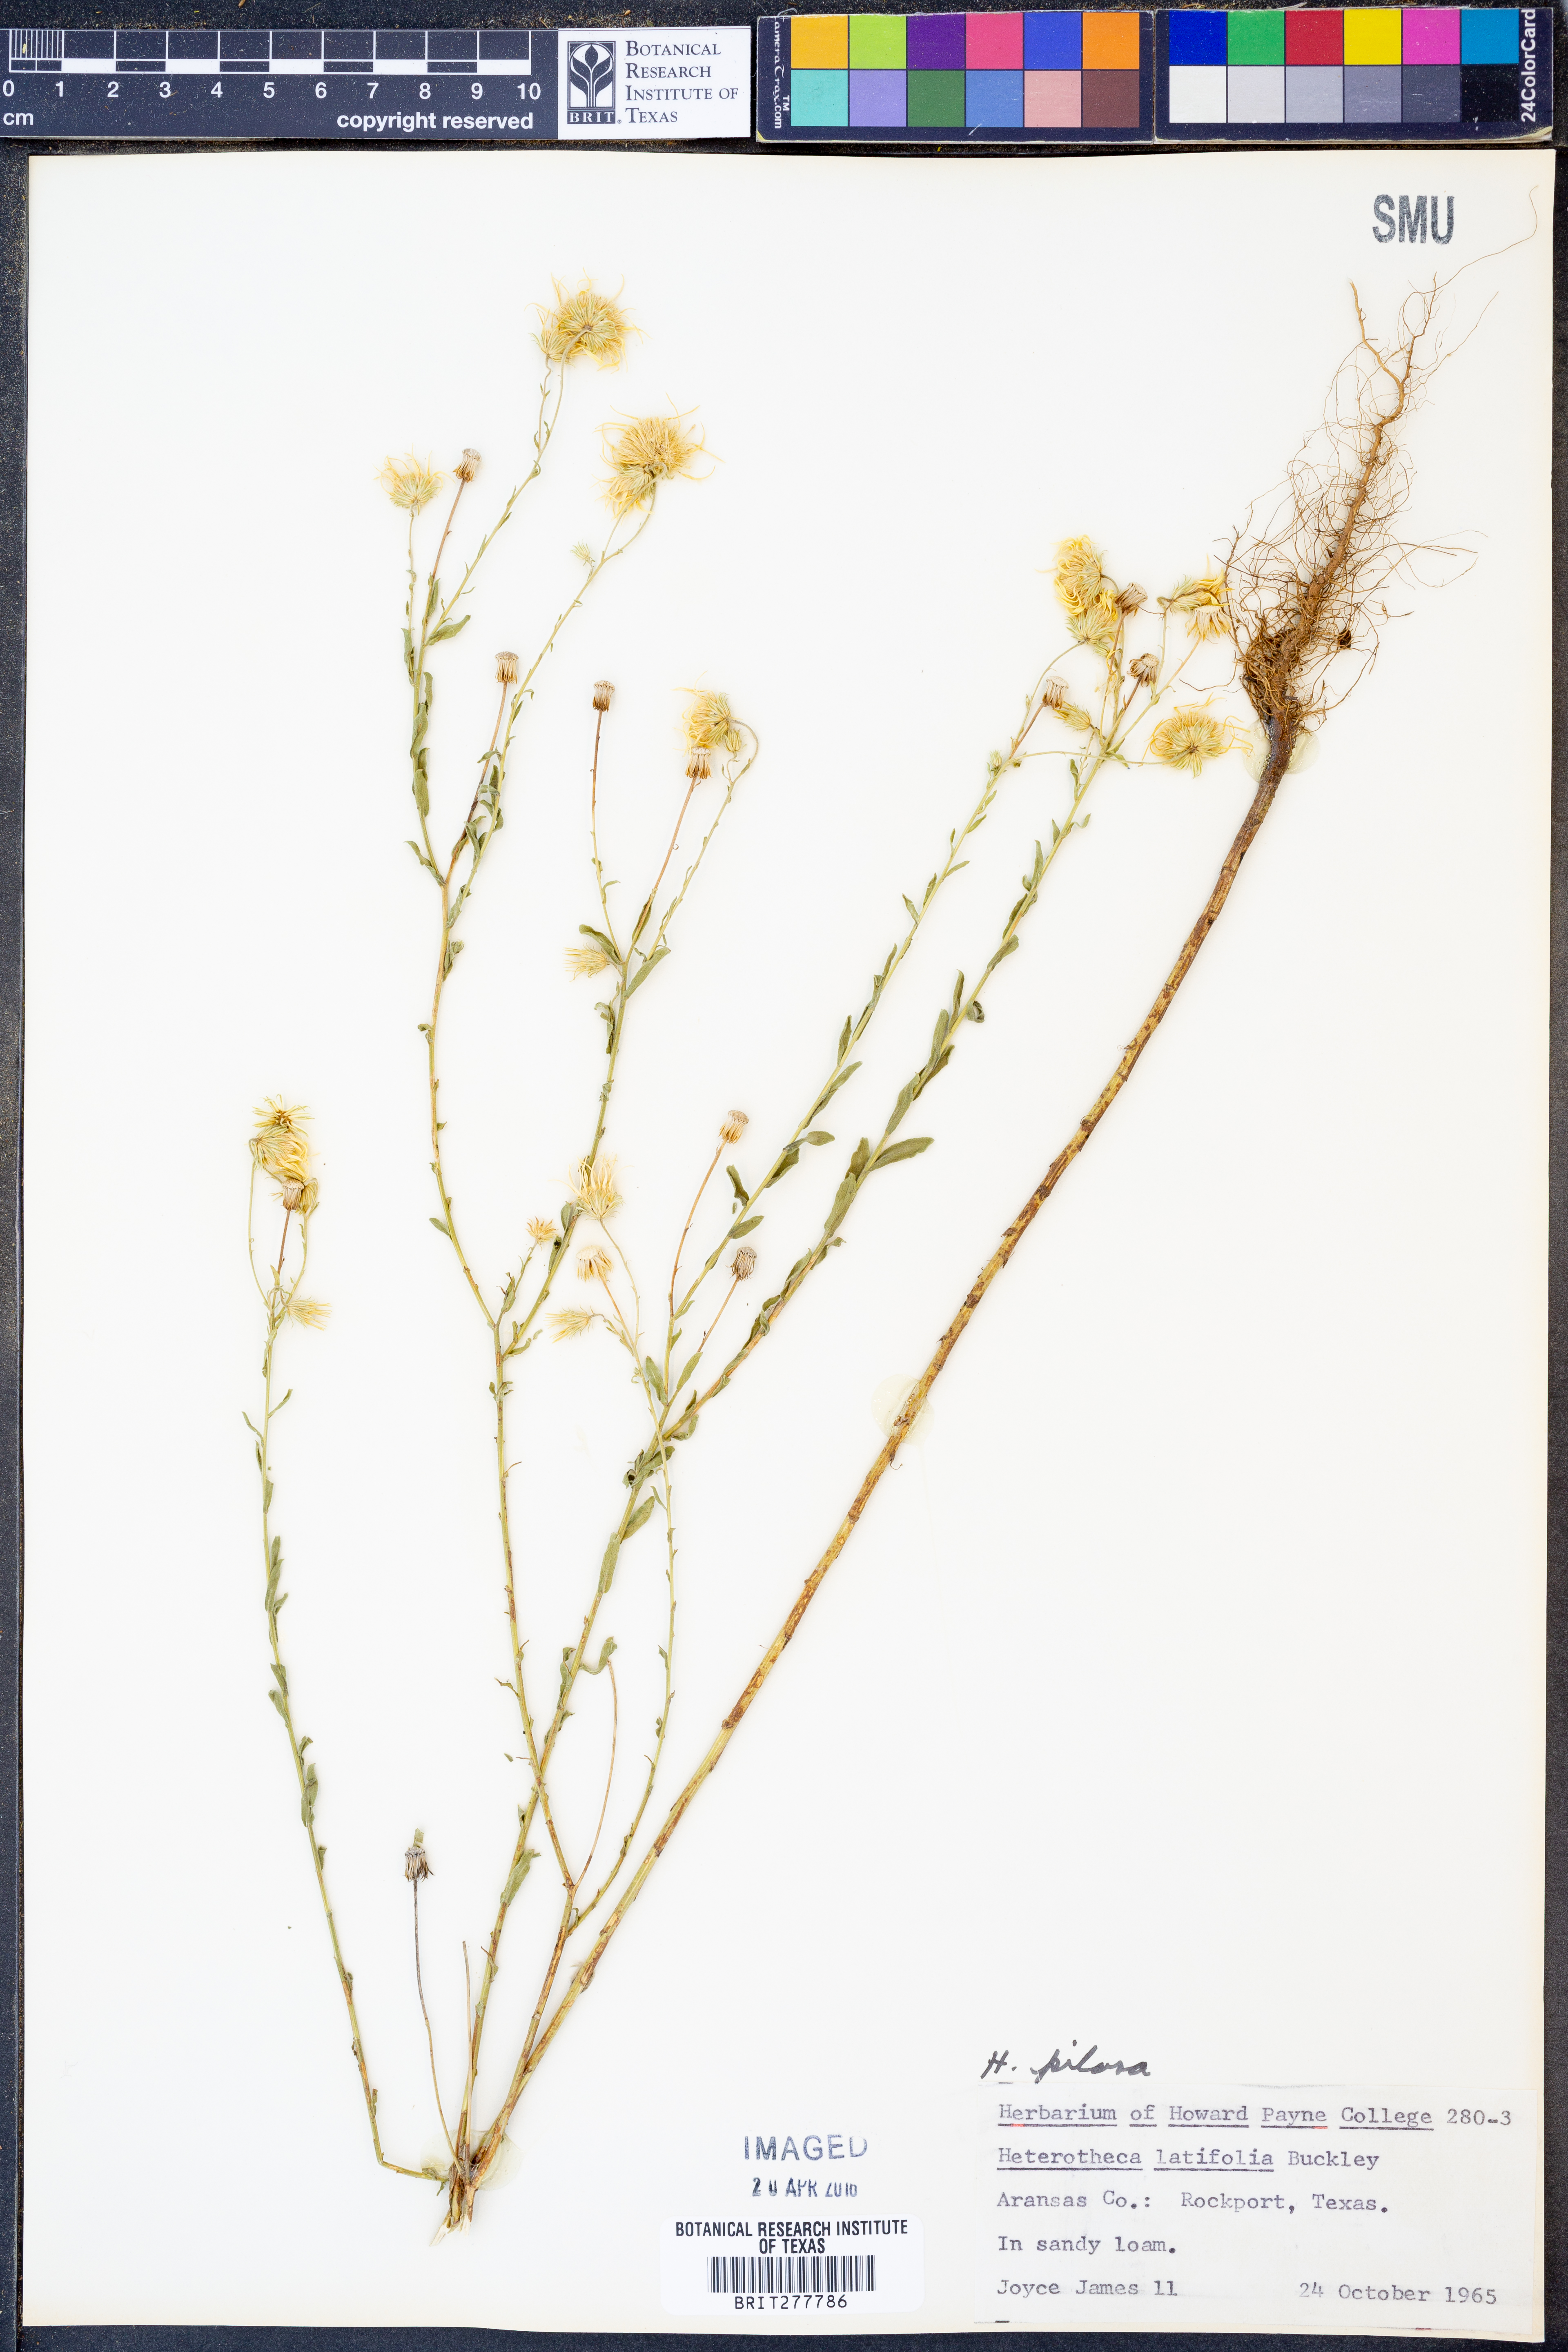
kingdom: Plantae
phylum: Tracheophyta
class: Magnoliopsida
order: Asterales
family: Asteraceae
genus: Bradburia
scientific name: Bradburia pilosa
